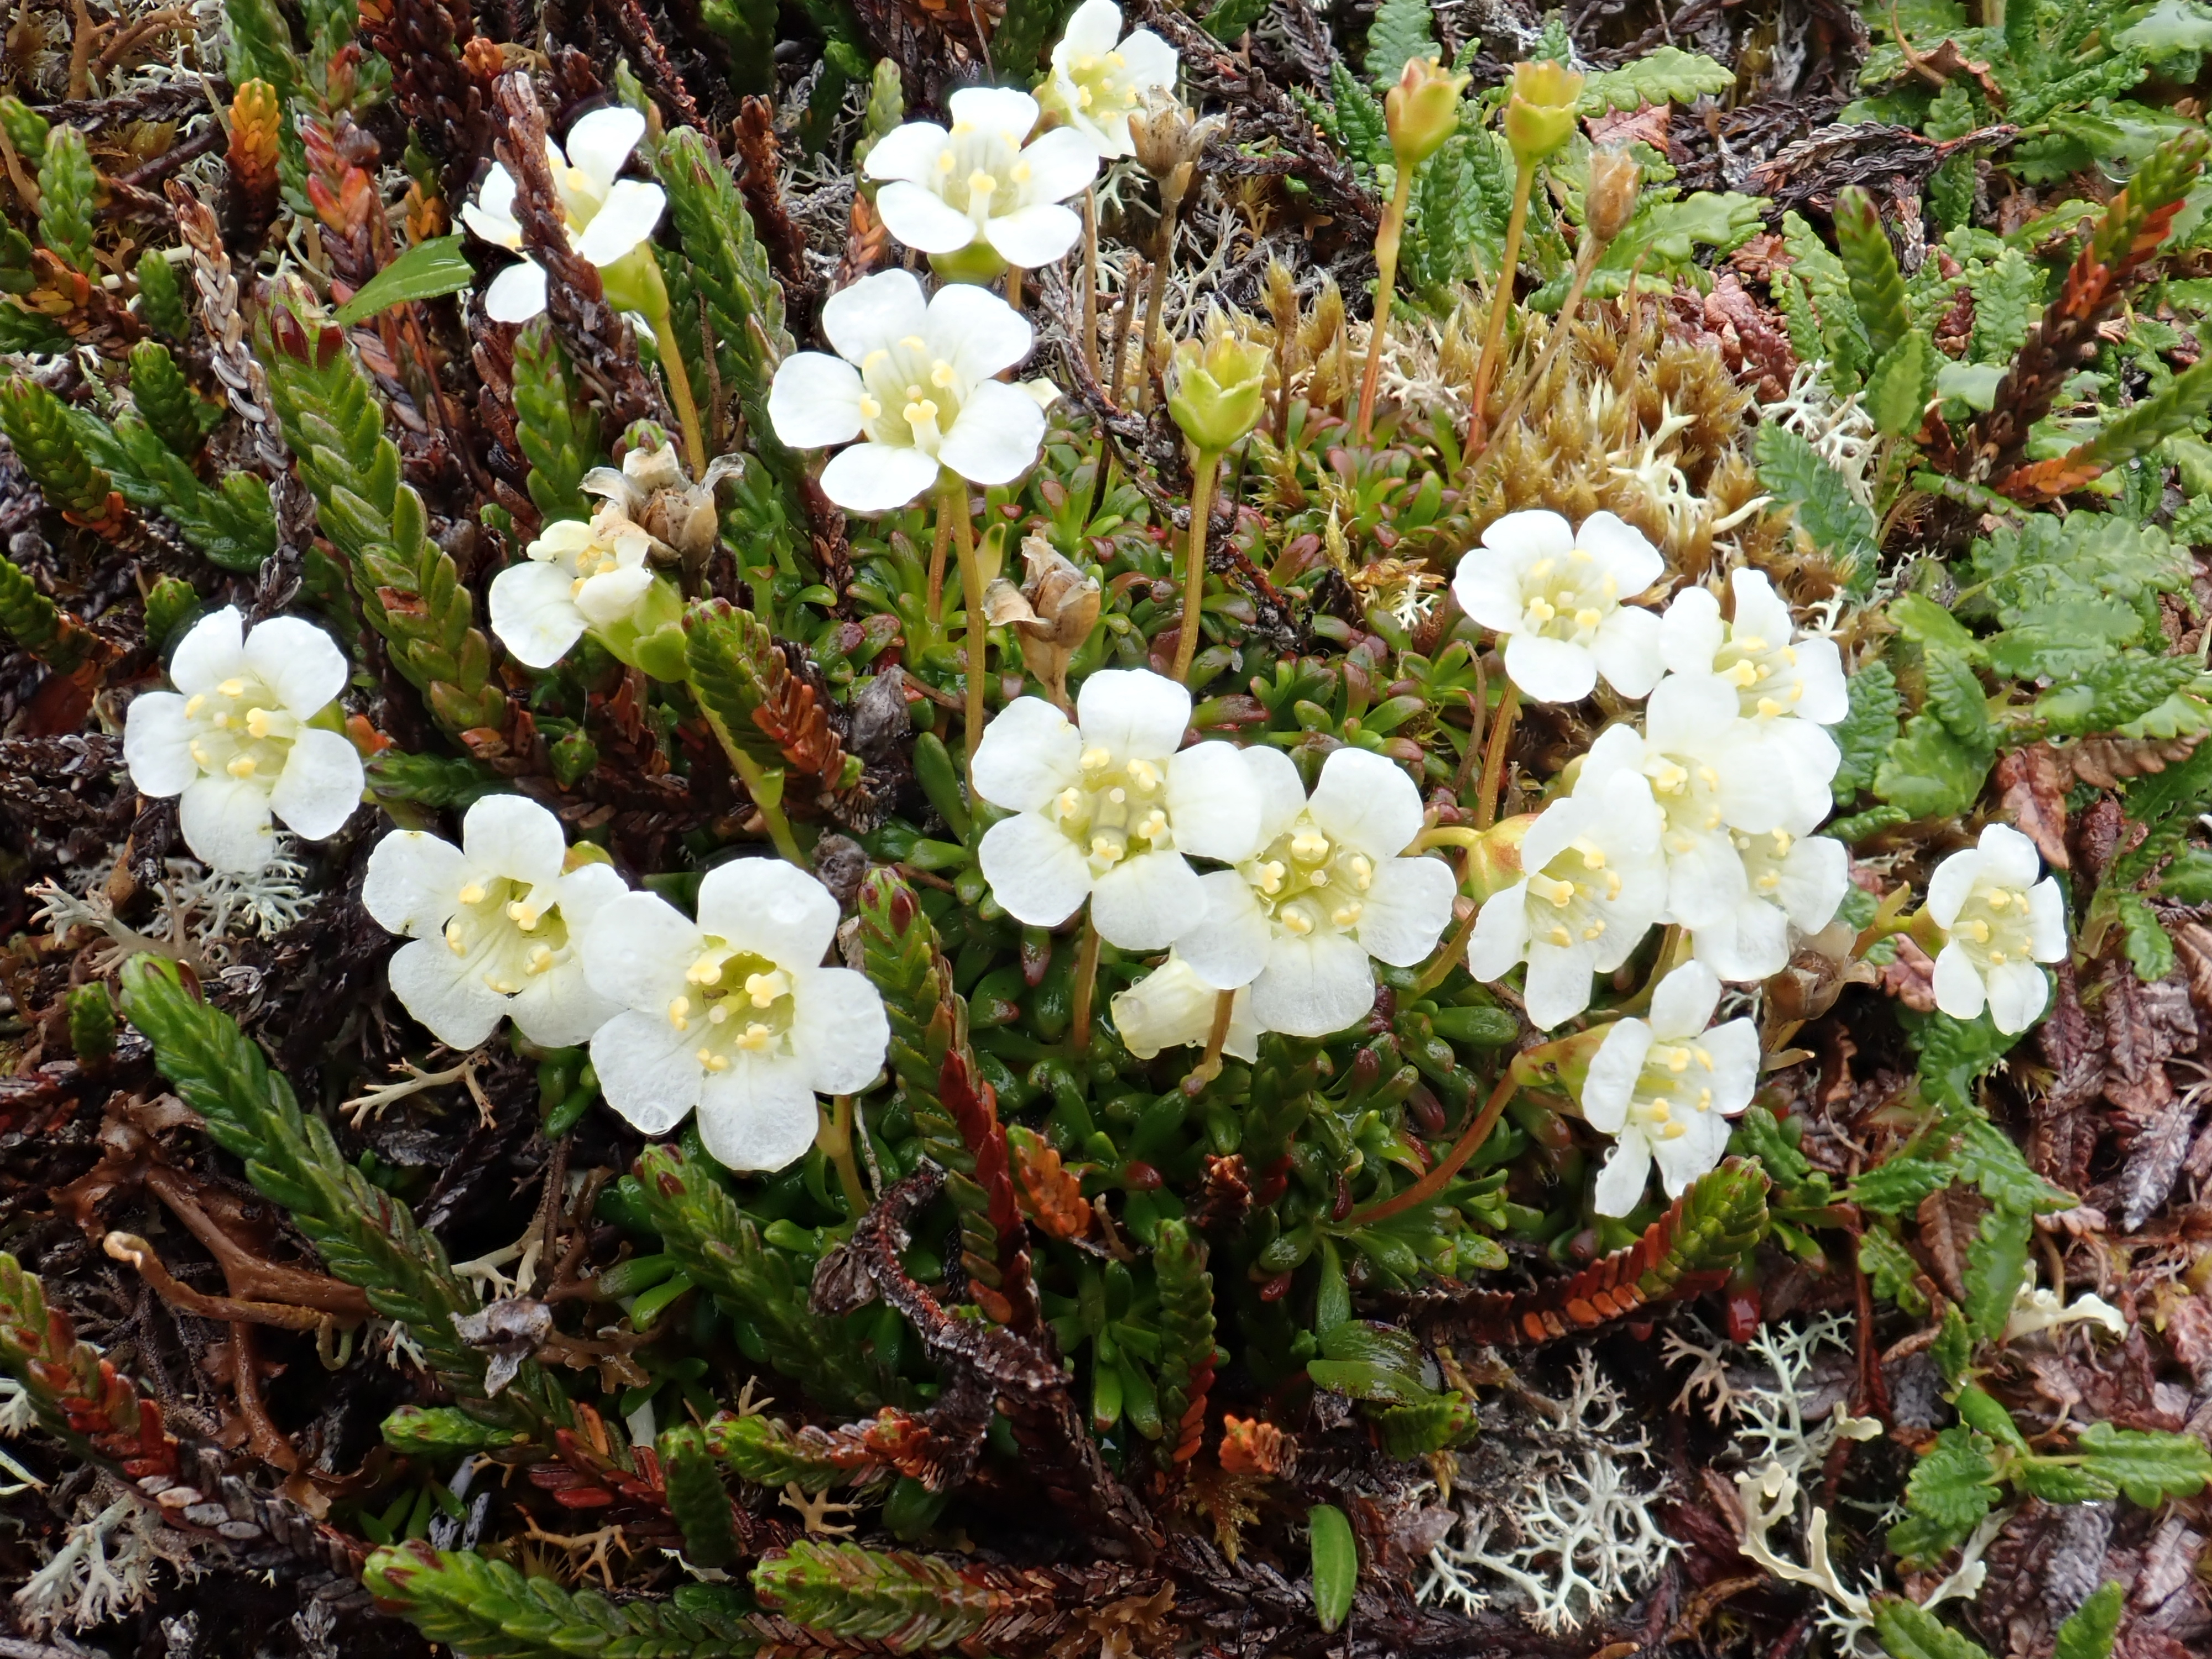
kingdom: Plantae
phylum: Tracheophyta
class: Magnoliopsida
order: Ericales
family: Diapensiaceae
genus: Diapensia
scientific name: Diapensia lapponica
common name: Diapensia
